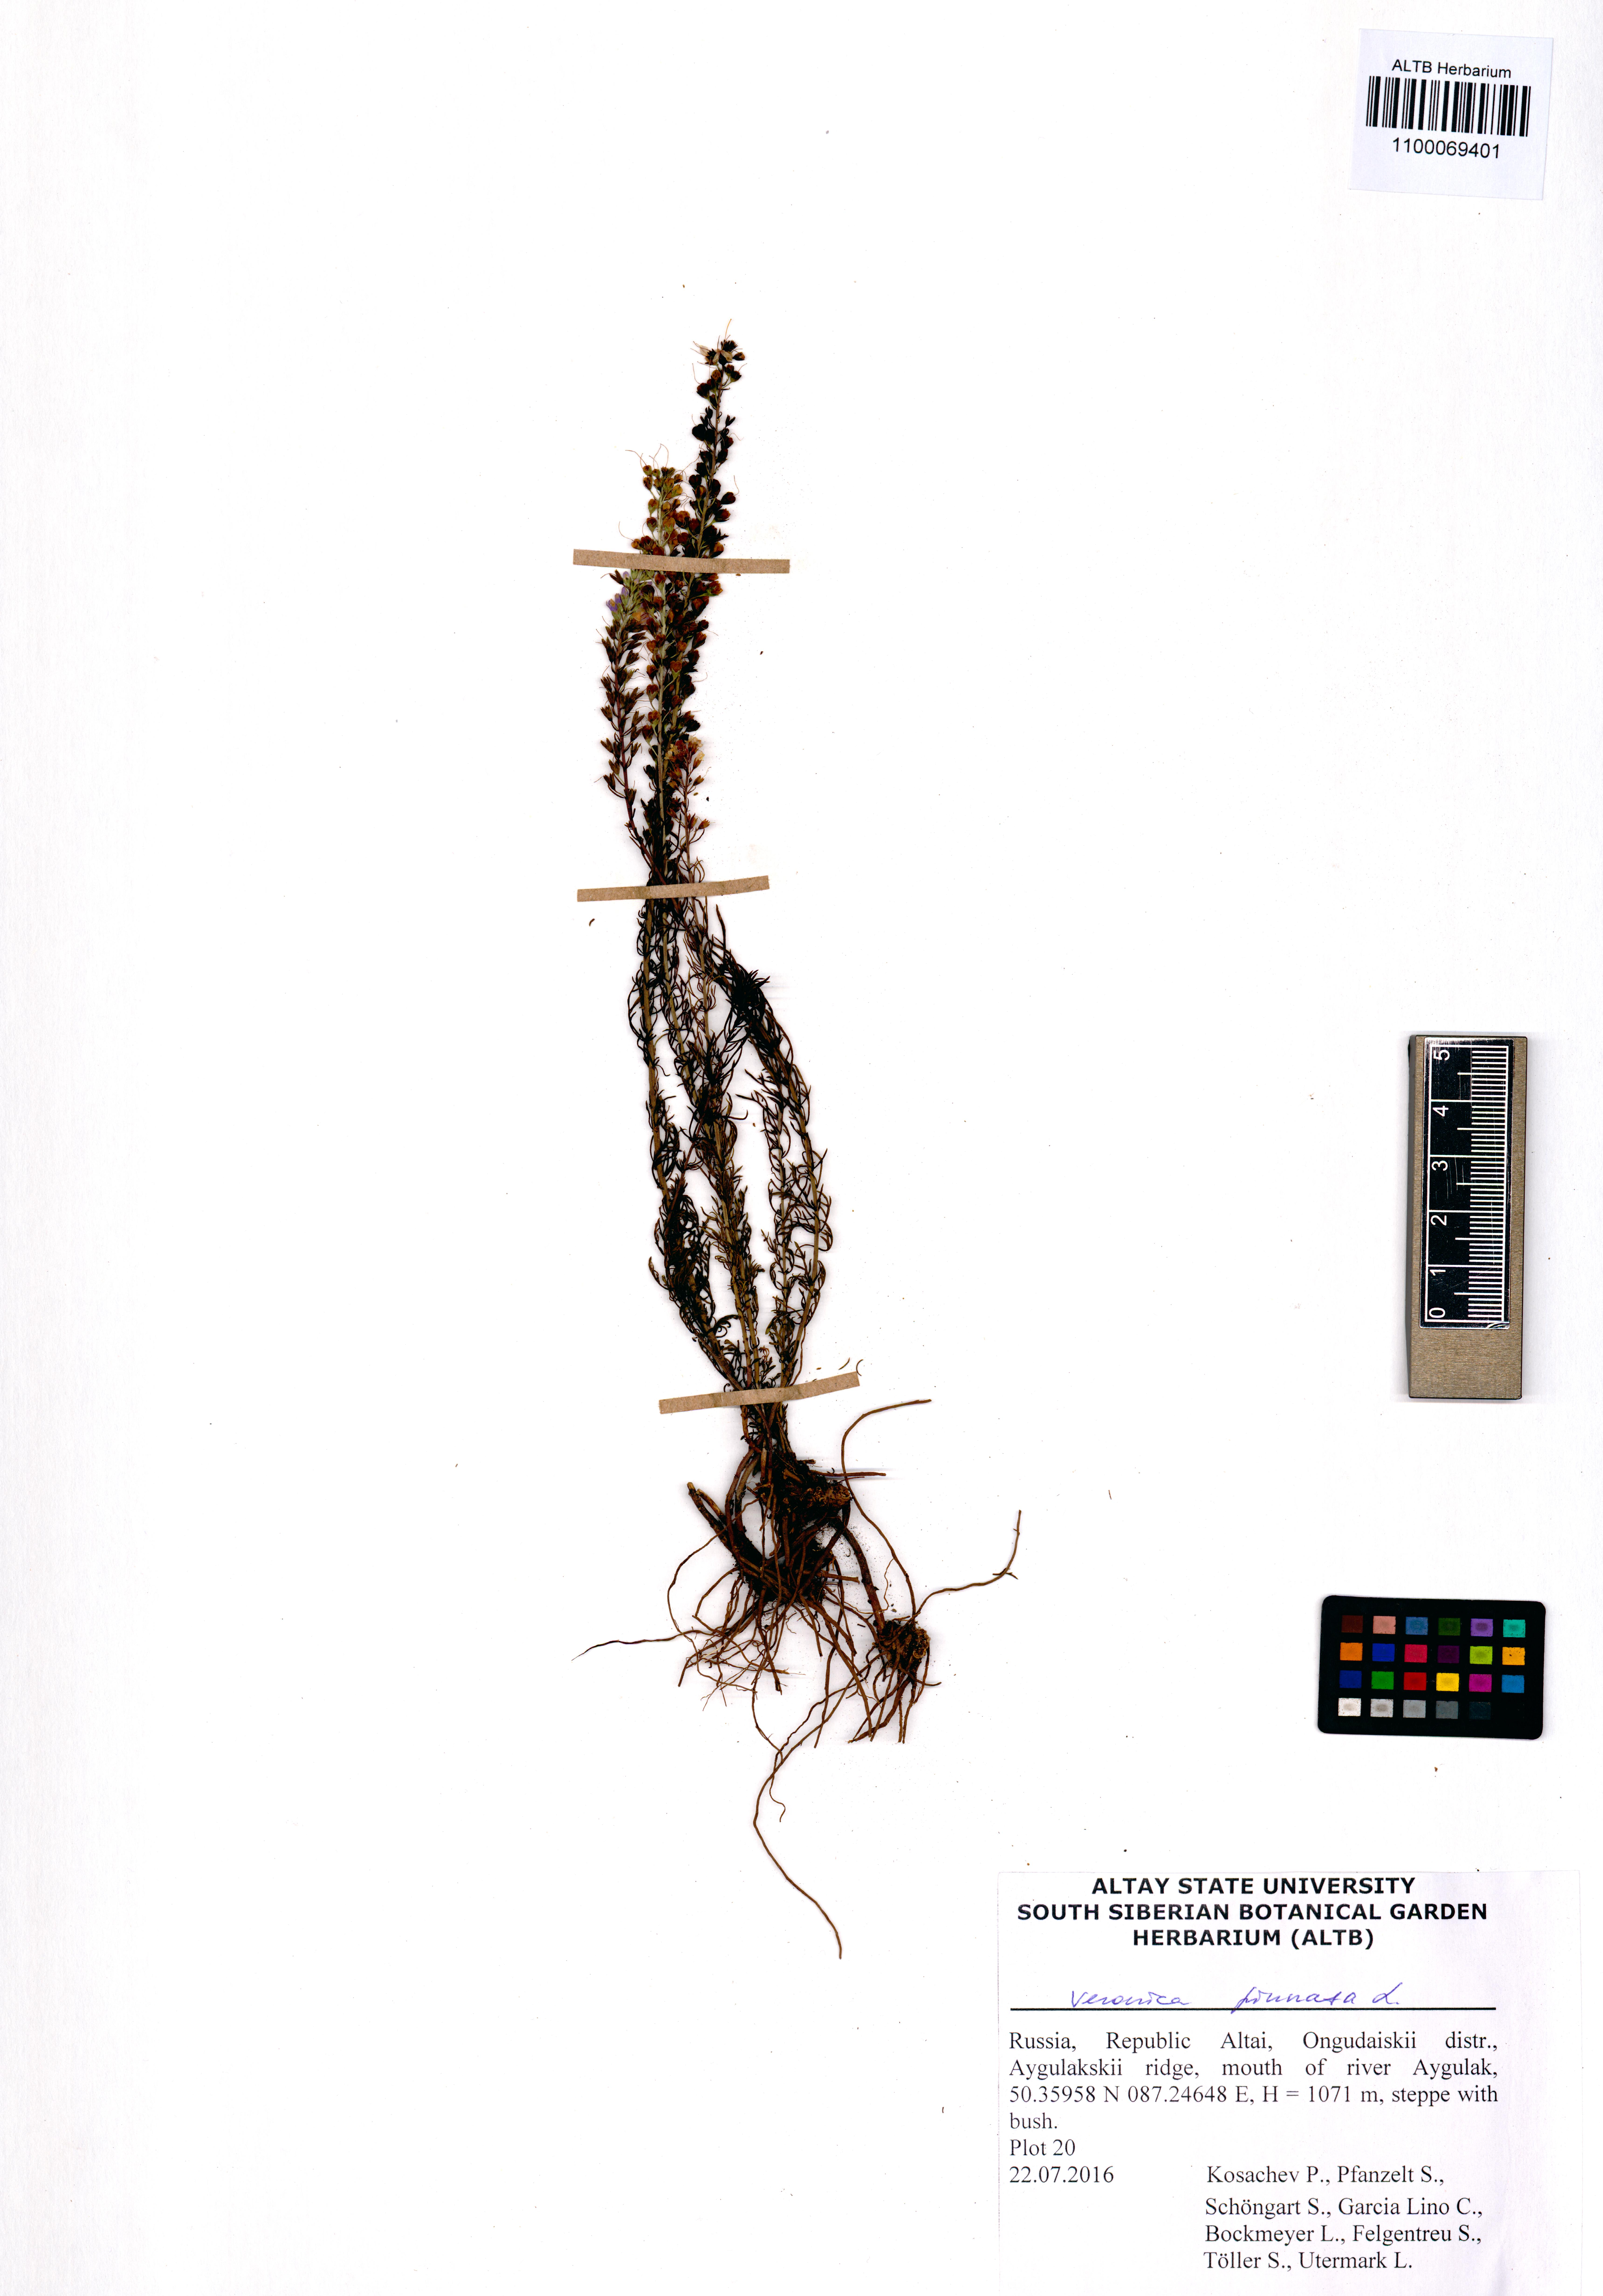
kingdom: Plantae
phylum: Tracheophyta
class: Magnoliopsida
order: Lamiales
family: Plantaginaceae
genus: Veronica
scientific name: Veronica pinnata
